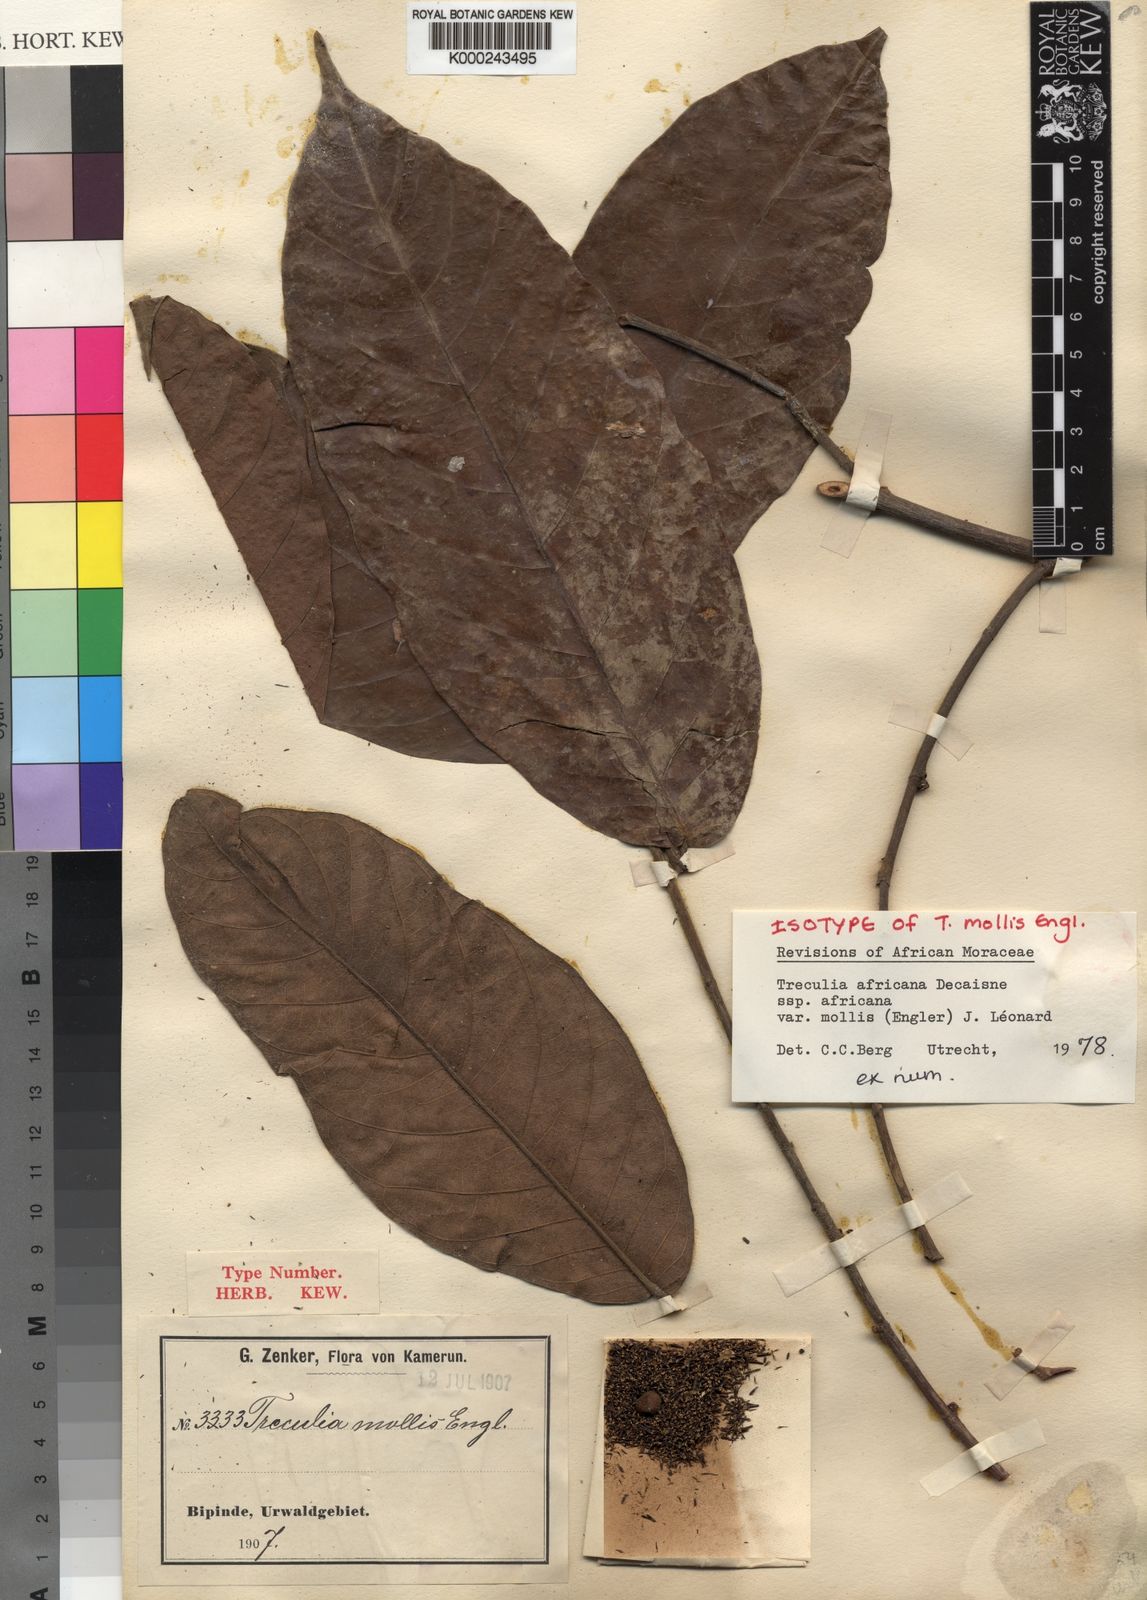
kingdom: Plantae
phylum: Tracheophyta
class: Magnoliopsida
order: Rosales
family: Moraceae
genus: Treculia
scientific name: Treculia
